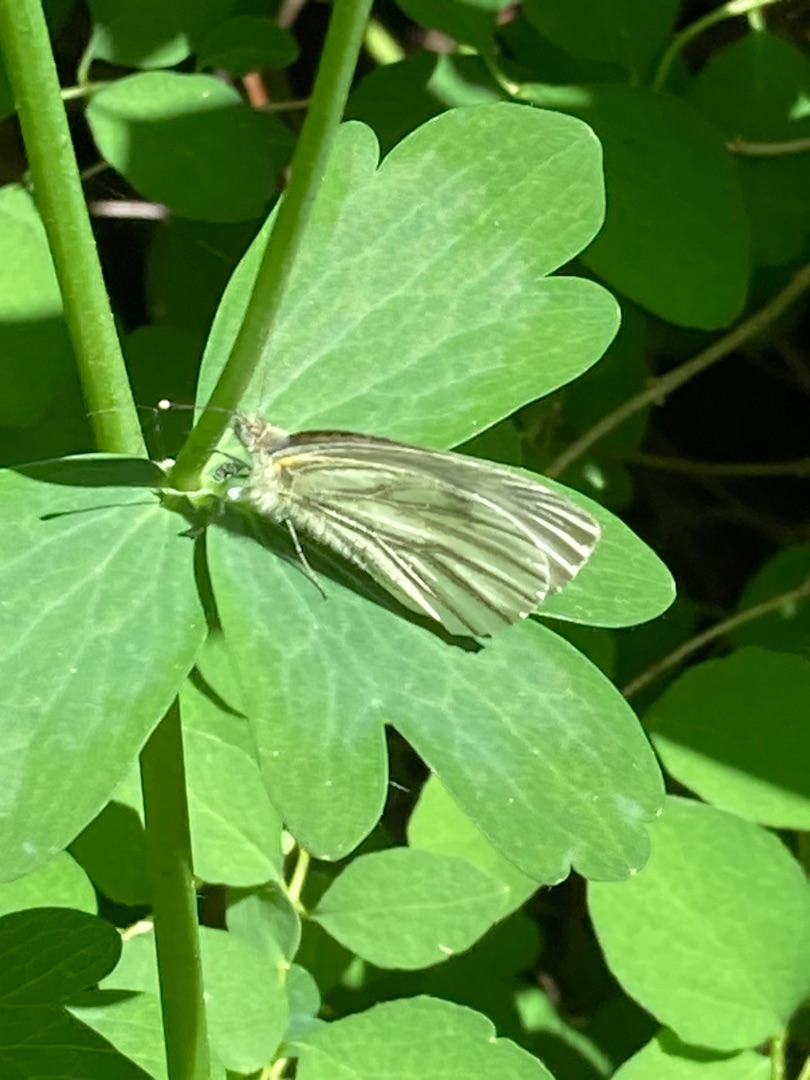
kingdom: Animalia
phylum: Arthropoda
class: Insecta
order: Lepidoptera
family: Pieridae
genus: Pieris
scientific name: Pieris napi
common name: Grønåret kålsommerfugl
